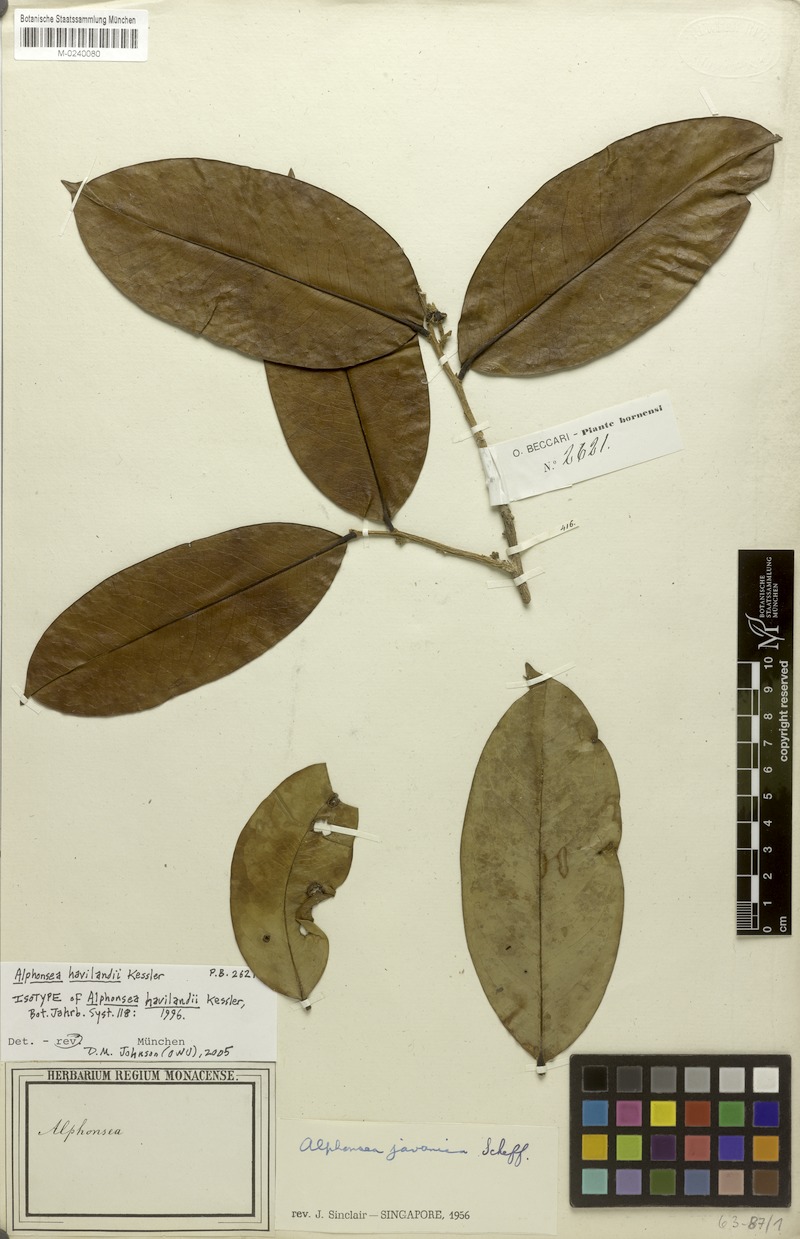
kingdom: Plantae
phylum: Tracheophyta
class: Magnoliopsida
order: Magnoliales
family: Annonaceae
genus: Alphonsea
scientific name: Alphonsea havilandii
